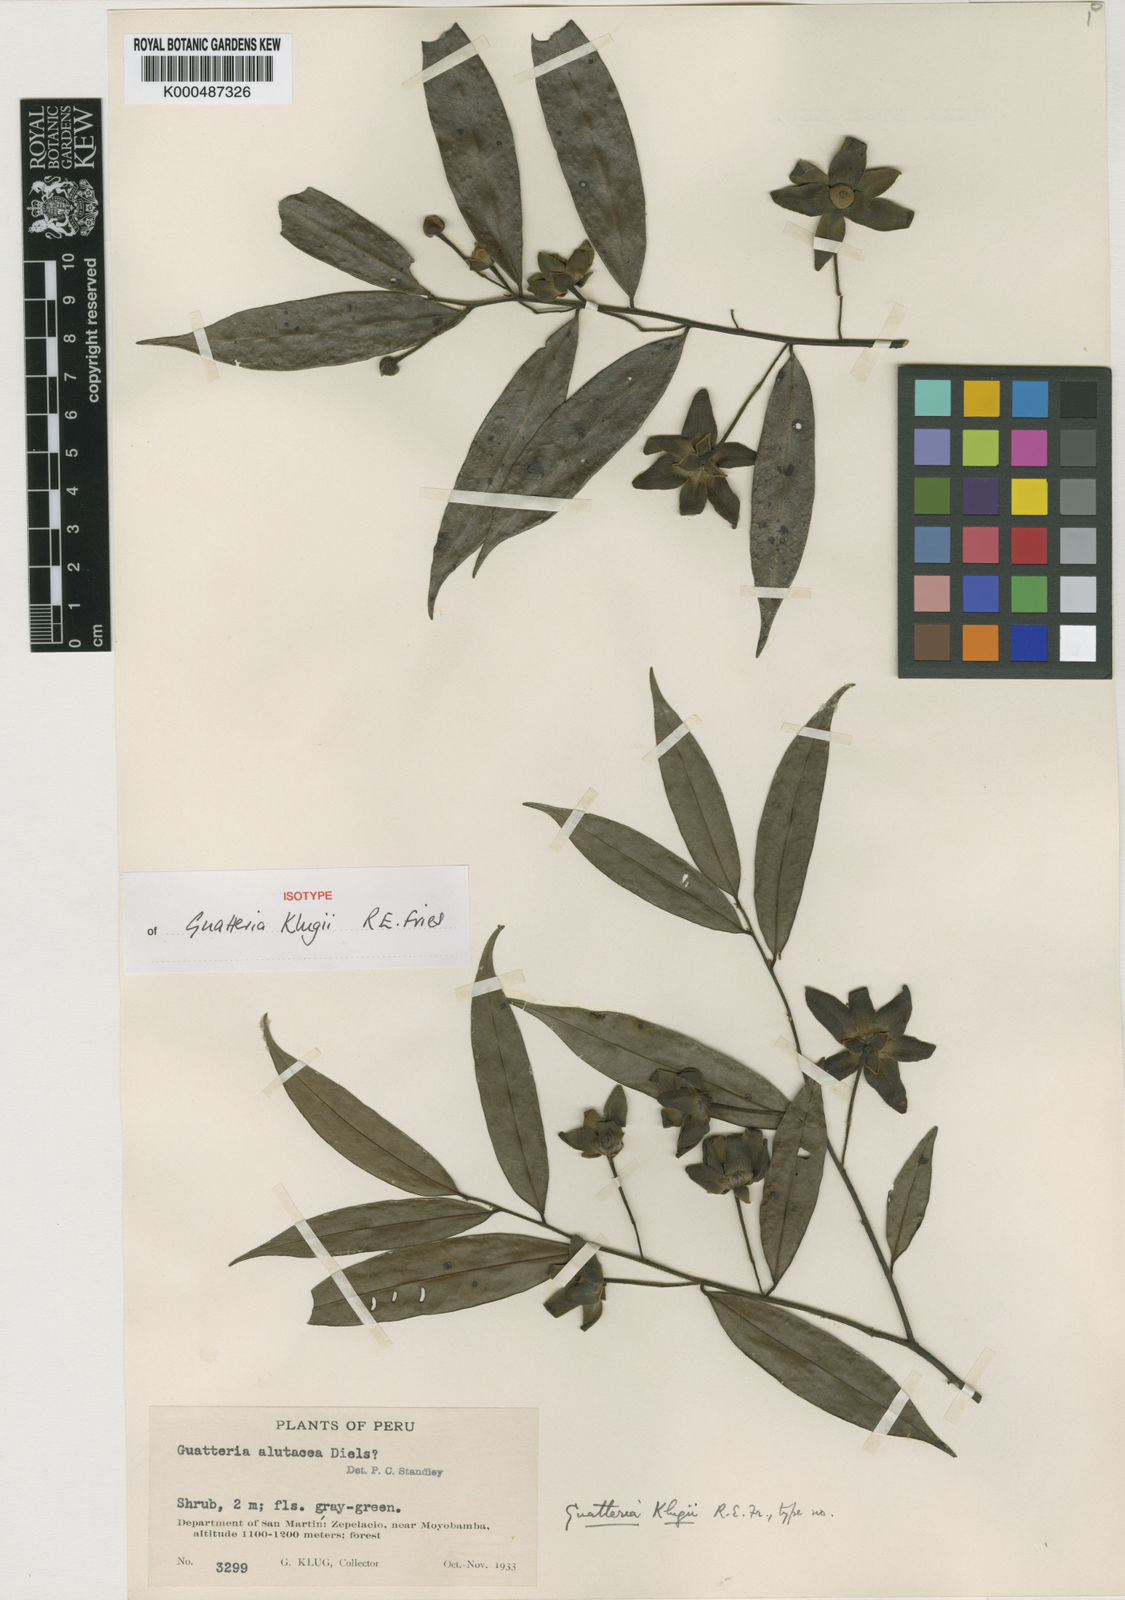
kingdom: Plantae
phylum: Tracheophyta
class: Magnoliopsida
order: Magnoliales
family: Annonaceae
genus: Guatteria
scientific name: Guatteria alutacea
